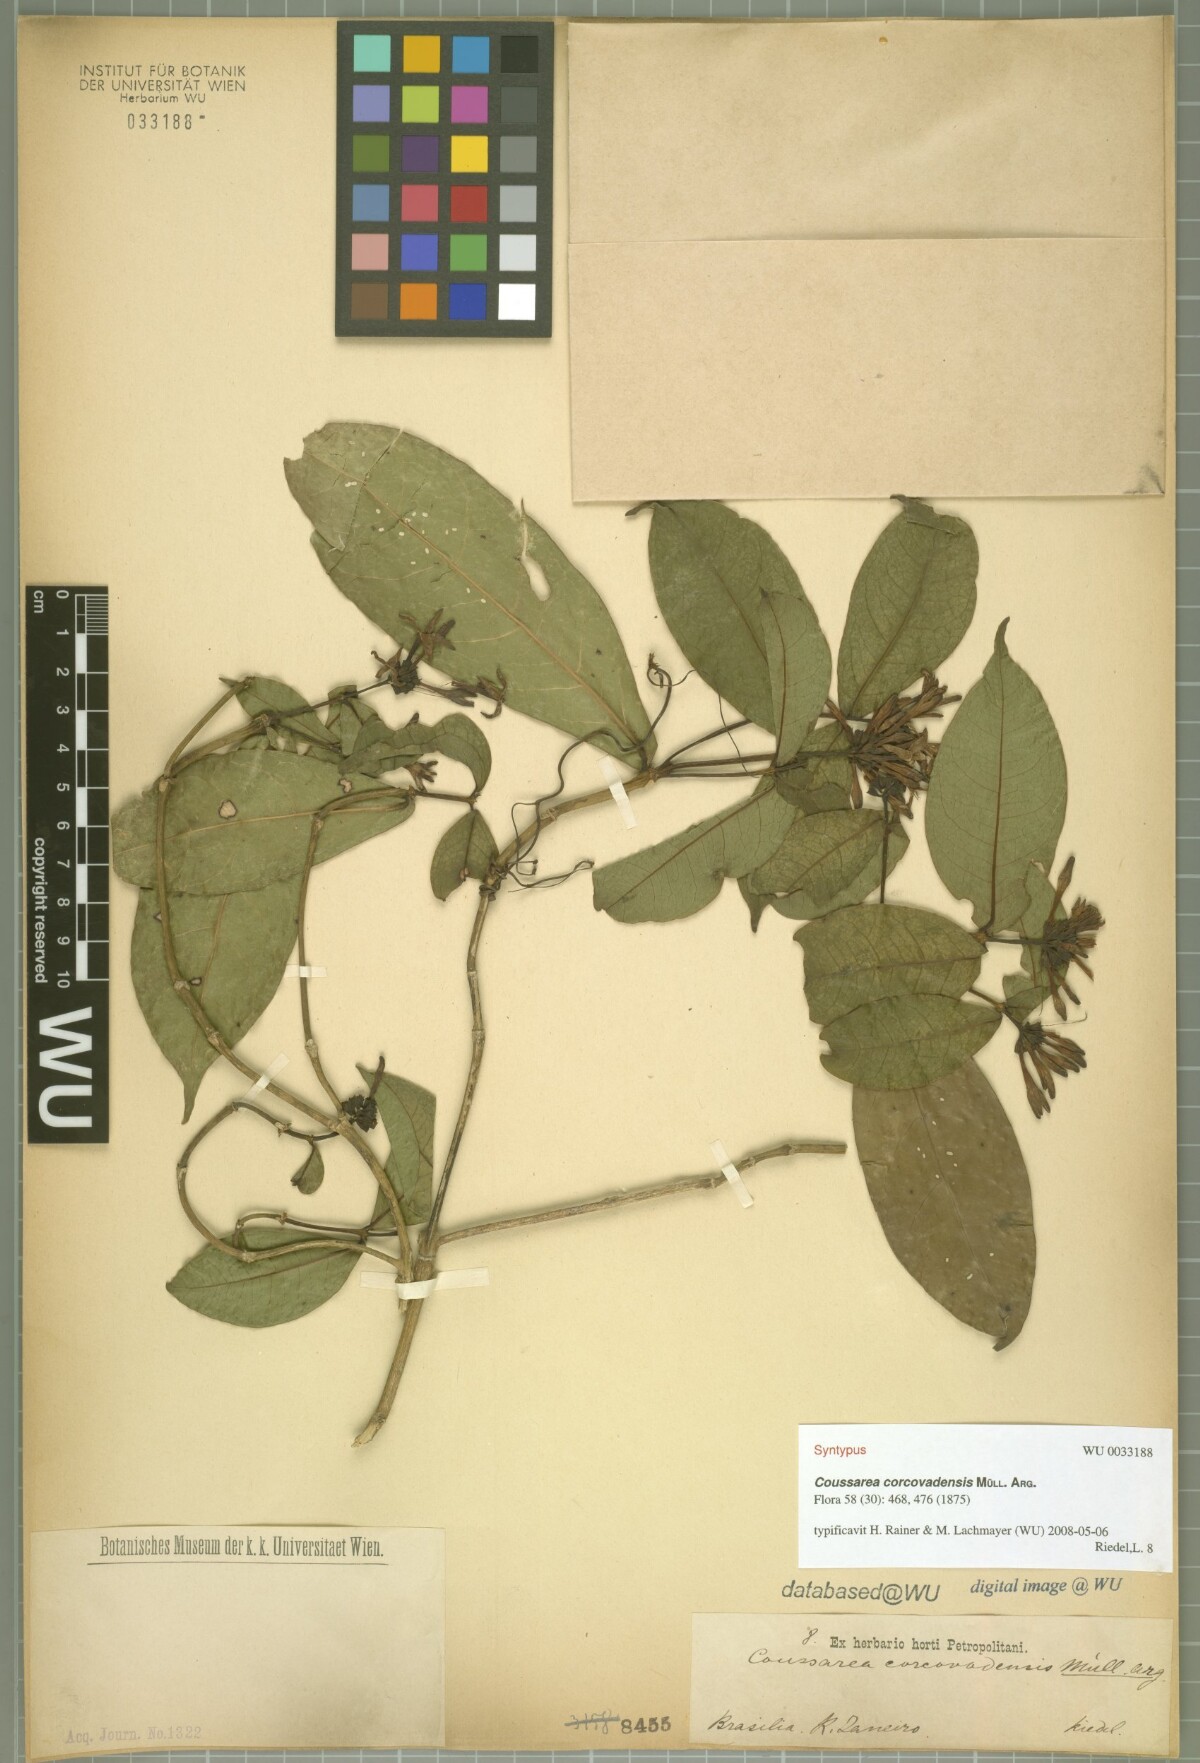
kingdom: Plantae
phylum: Tracheophyta
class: Magnoliopsida
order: Gentianales
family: Rubiaceae
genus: Coussarea
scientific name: Coussarea capitata
